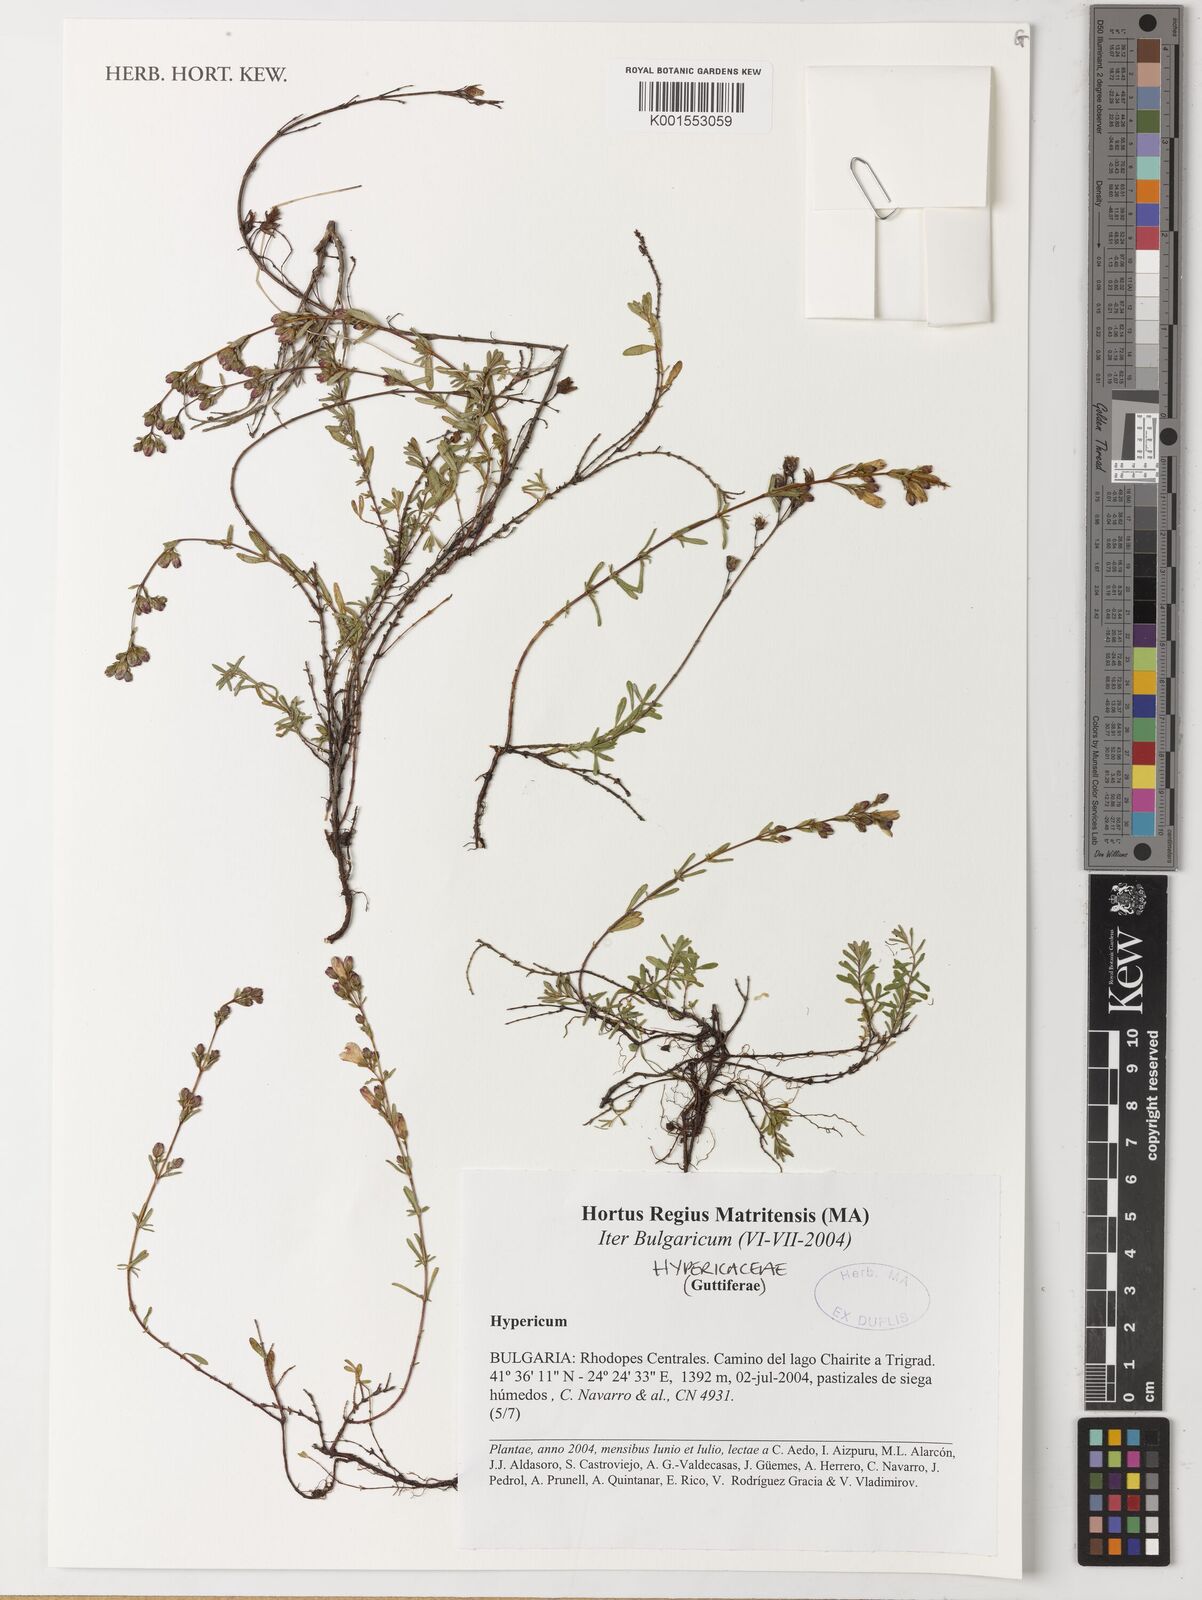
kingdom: Plantae
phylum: Tracheophyta
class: Magnoliopsida
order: Malpighiales
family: Hypericaceae
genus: Hypericum
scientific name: Hypericum
